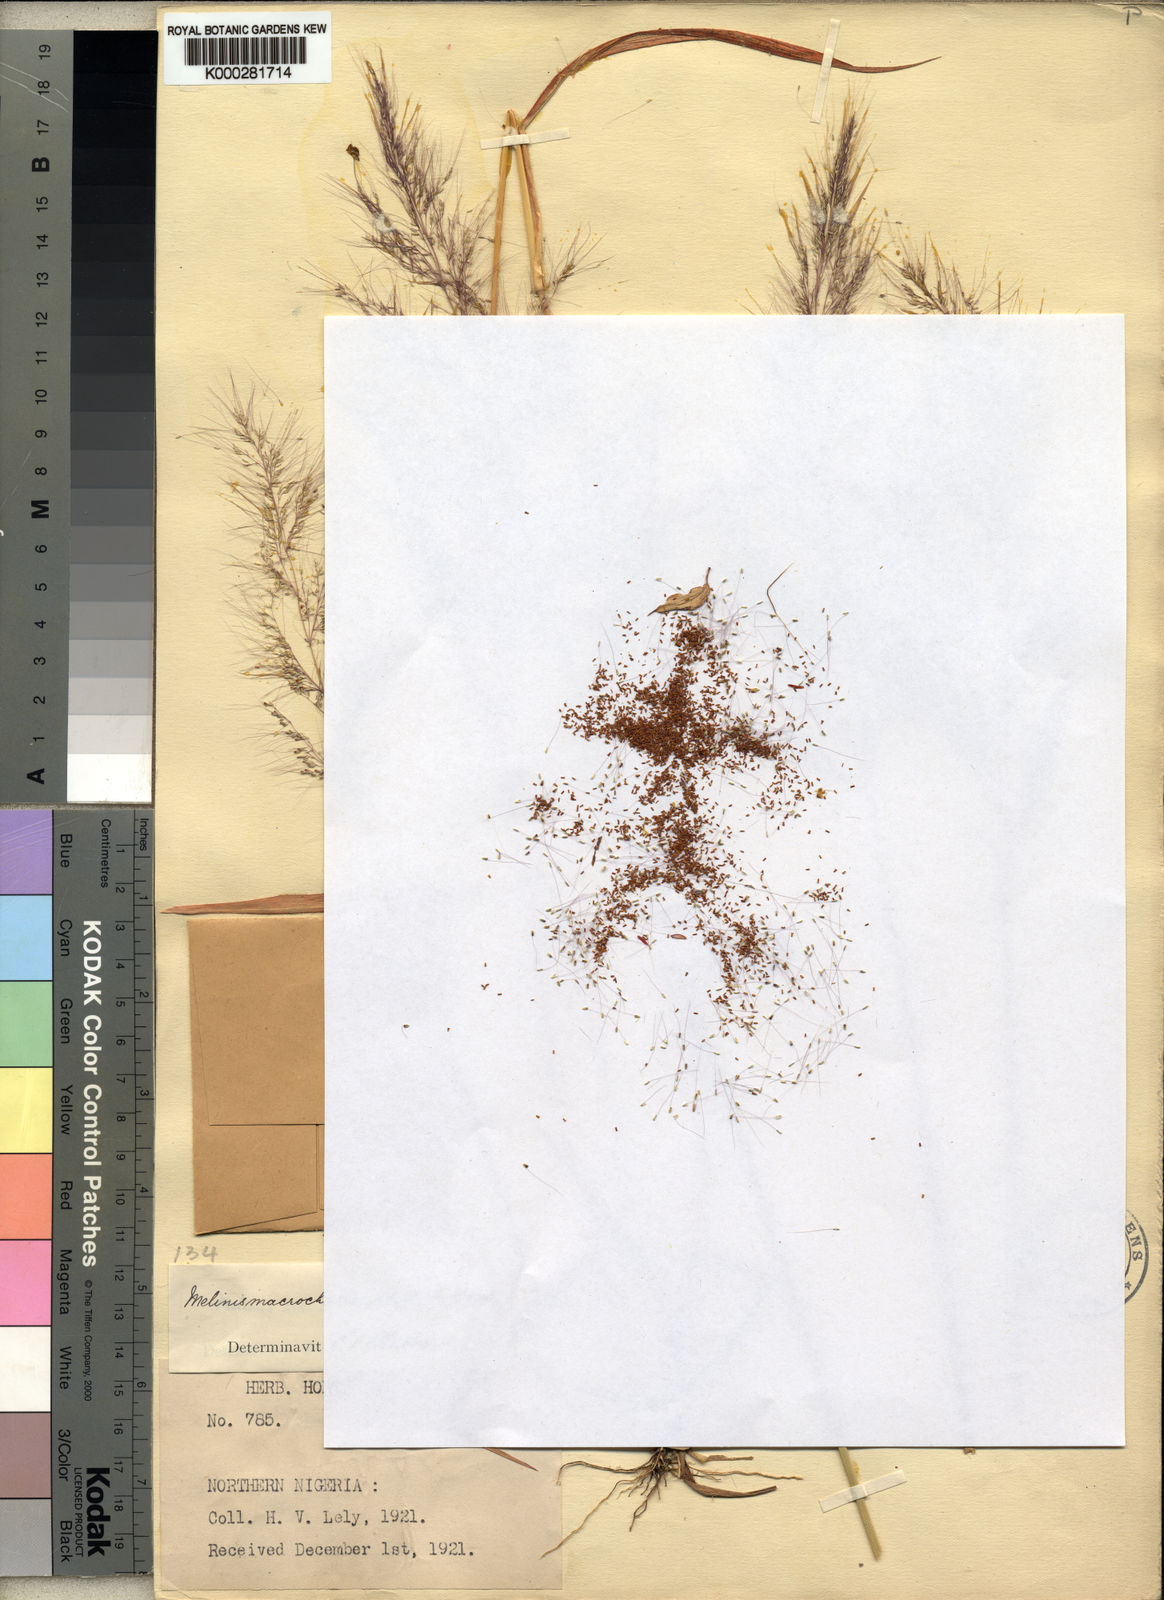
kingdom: Plantae
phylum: Tracheophyta
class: Liliopsida
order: Poales
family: Poaceae
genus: Melinis
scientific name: Melinis macrochaeta
